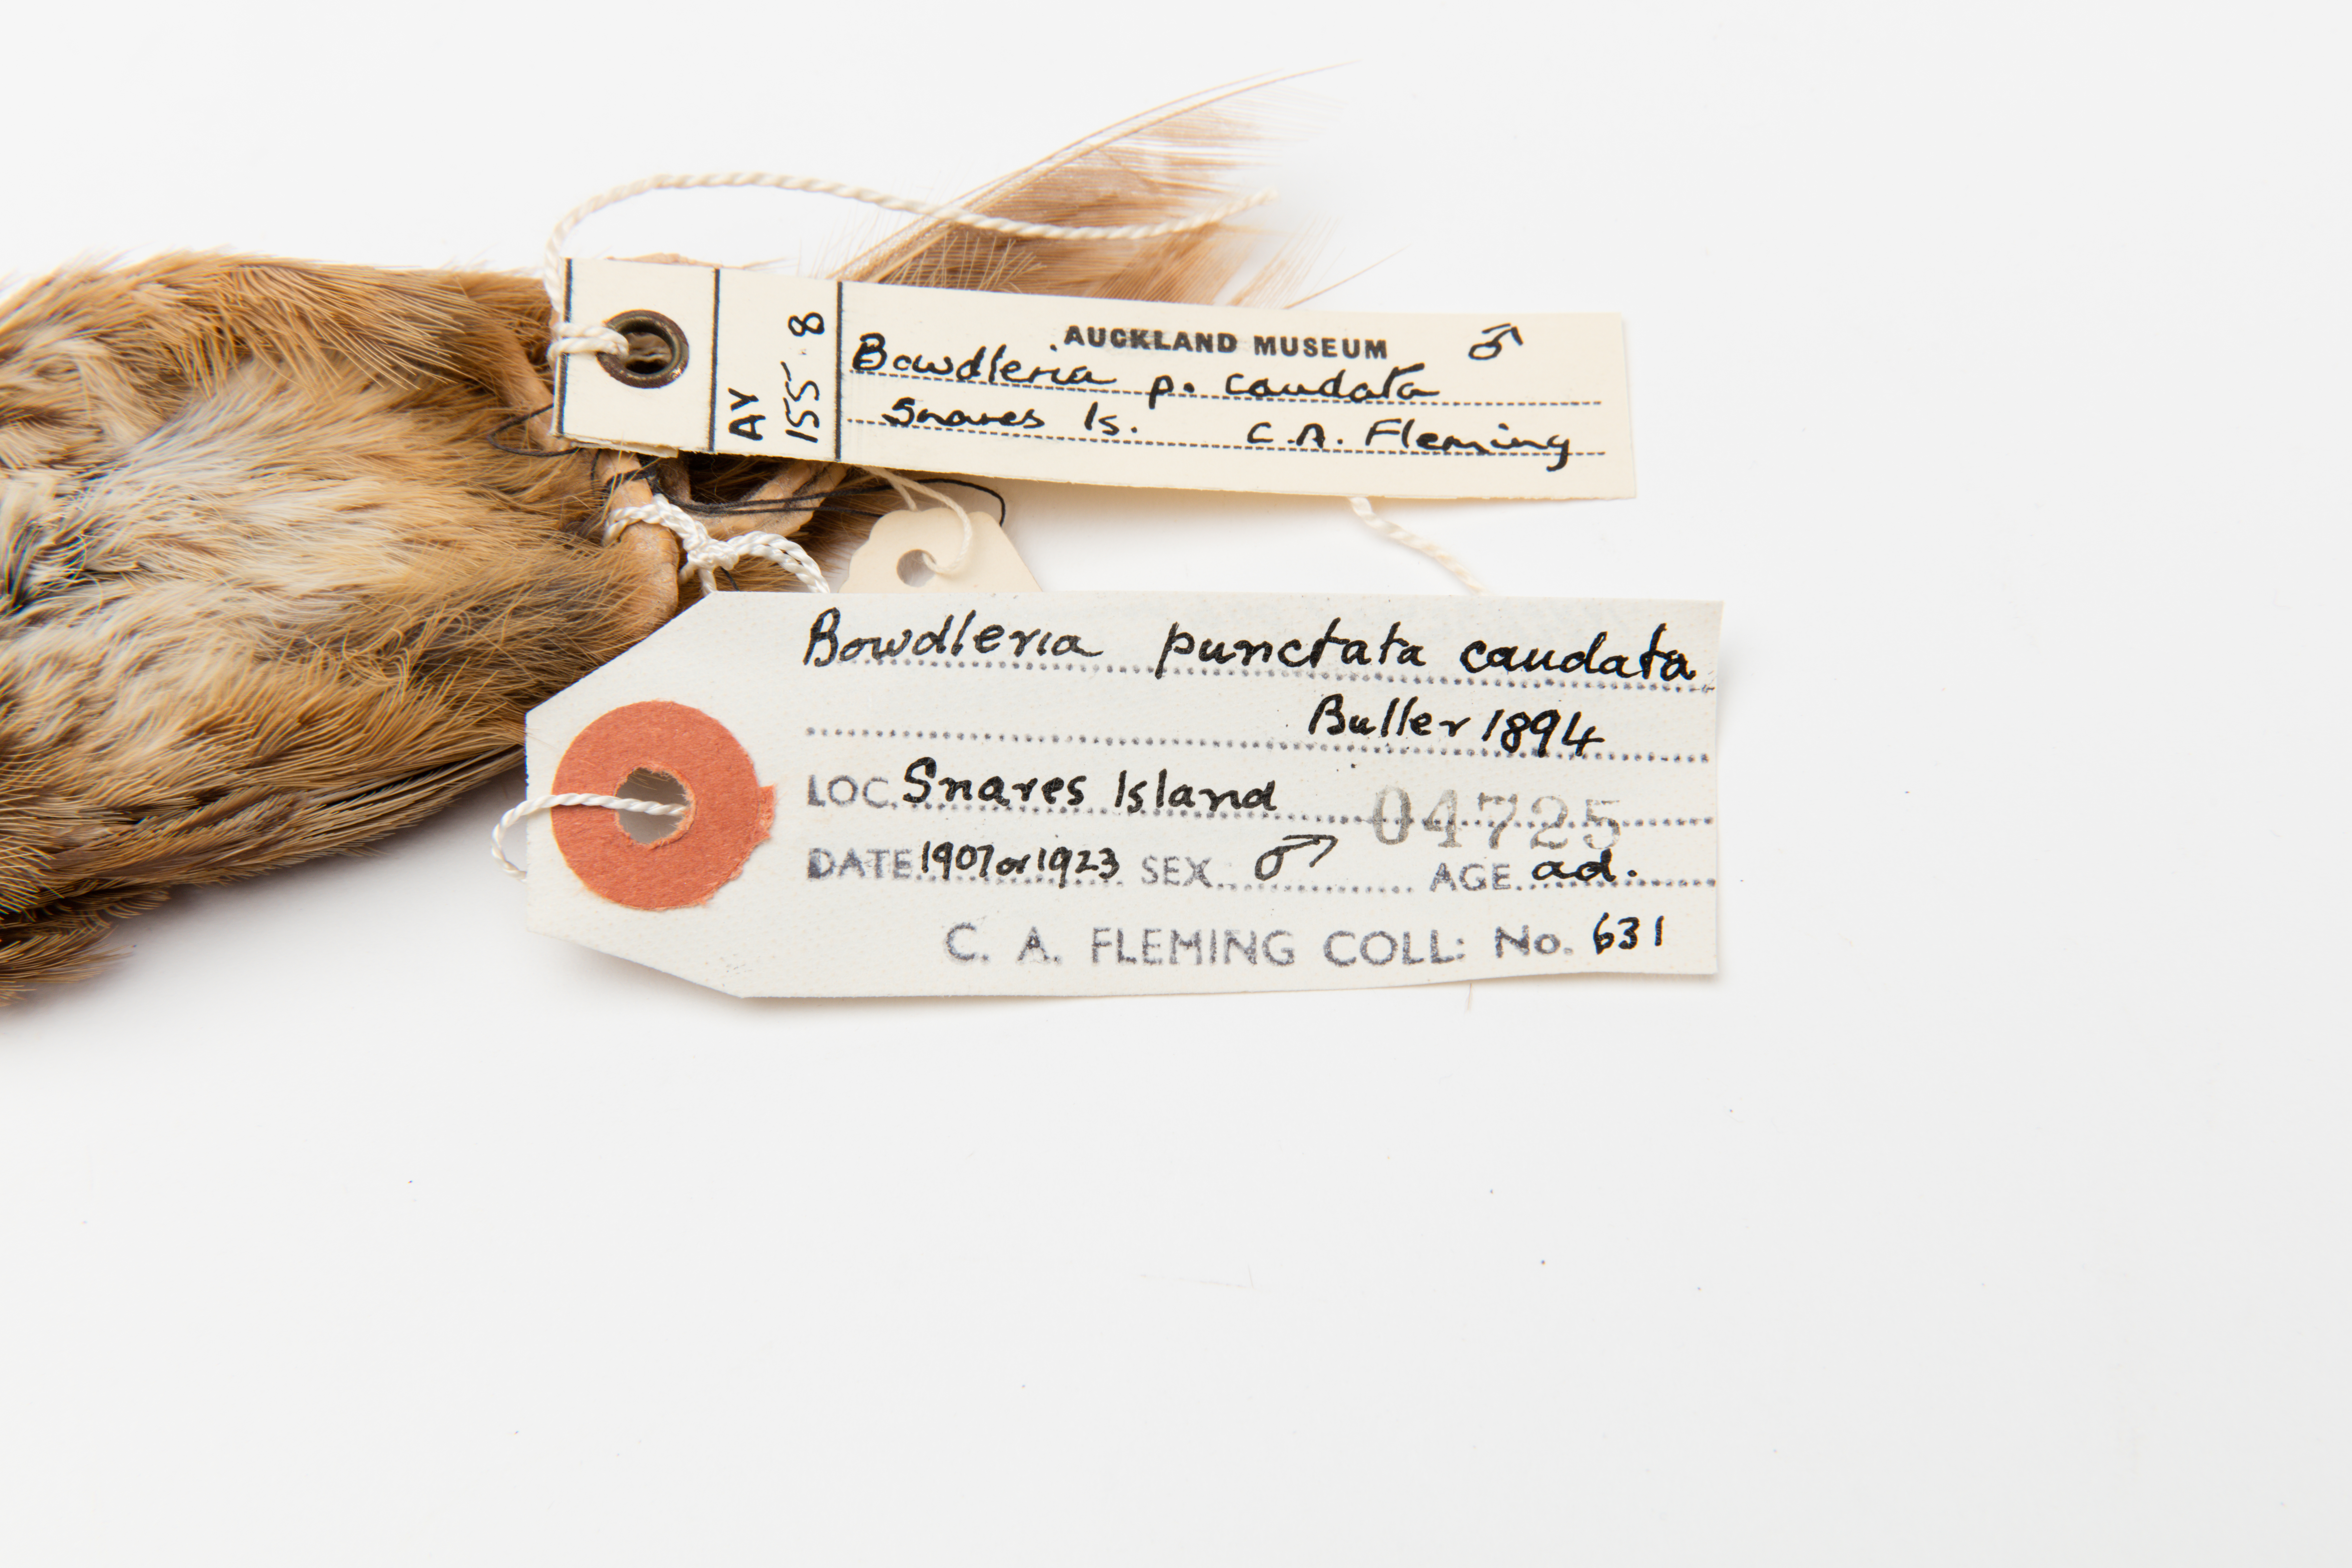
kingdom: Animalia
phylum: Chordata
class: Aves
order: Passeriformes
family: Locustellidae
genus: Megalurus
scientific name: Megalurus punctatus
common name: New zealand fernbird
